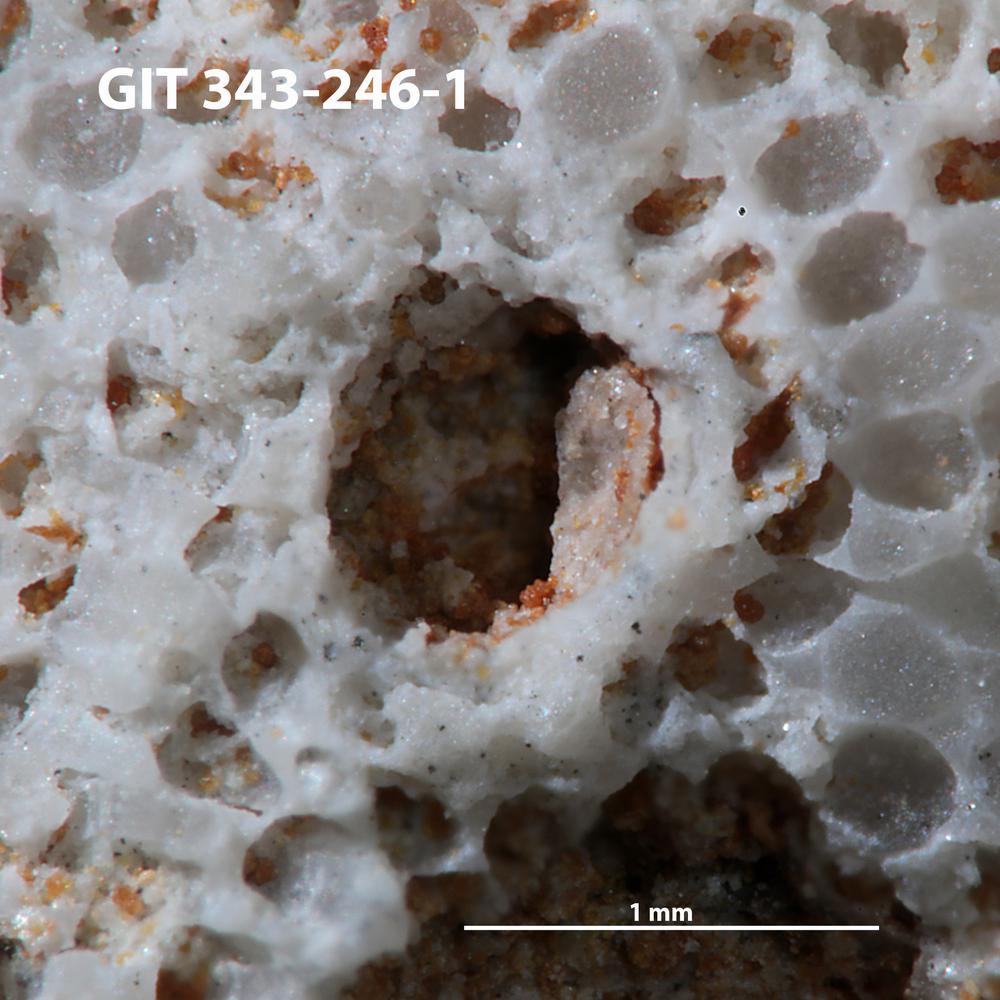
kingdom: Animalia
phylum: Annelida
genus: Anoigmaichnus
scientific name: Anoigmaichnus
